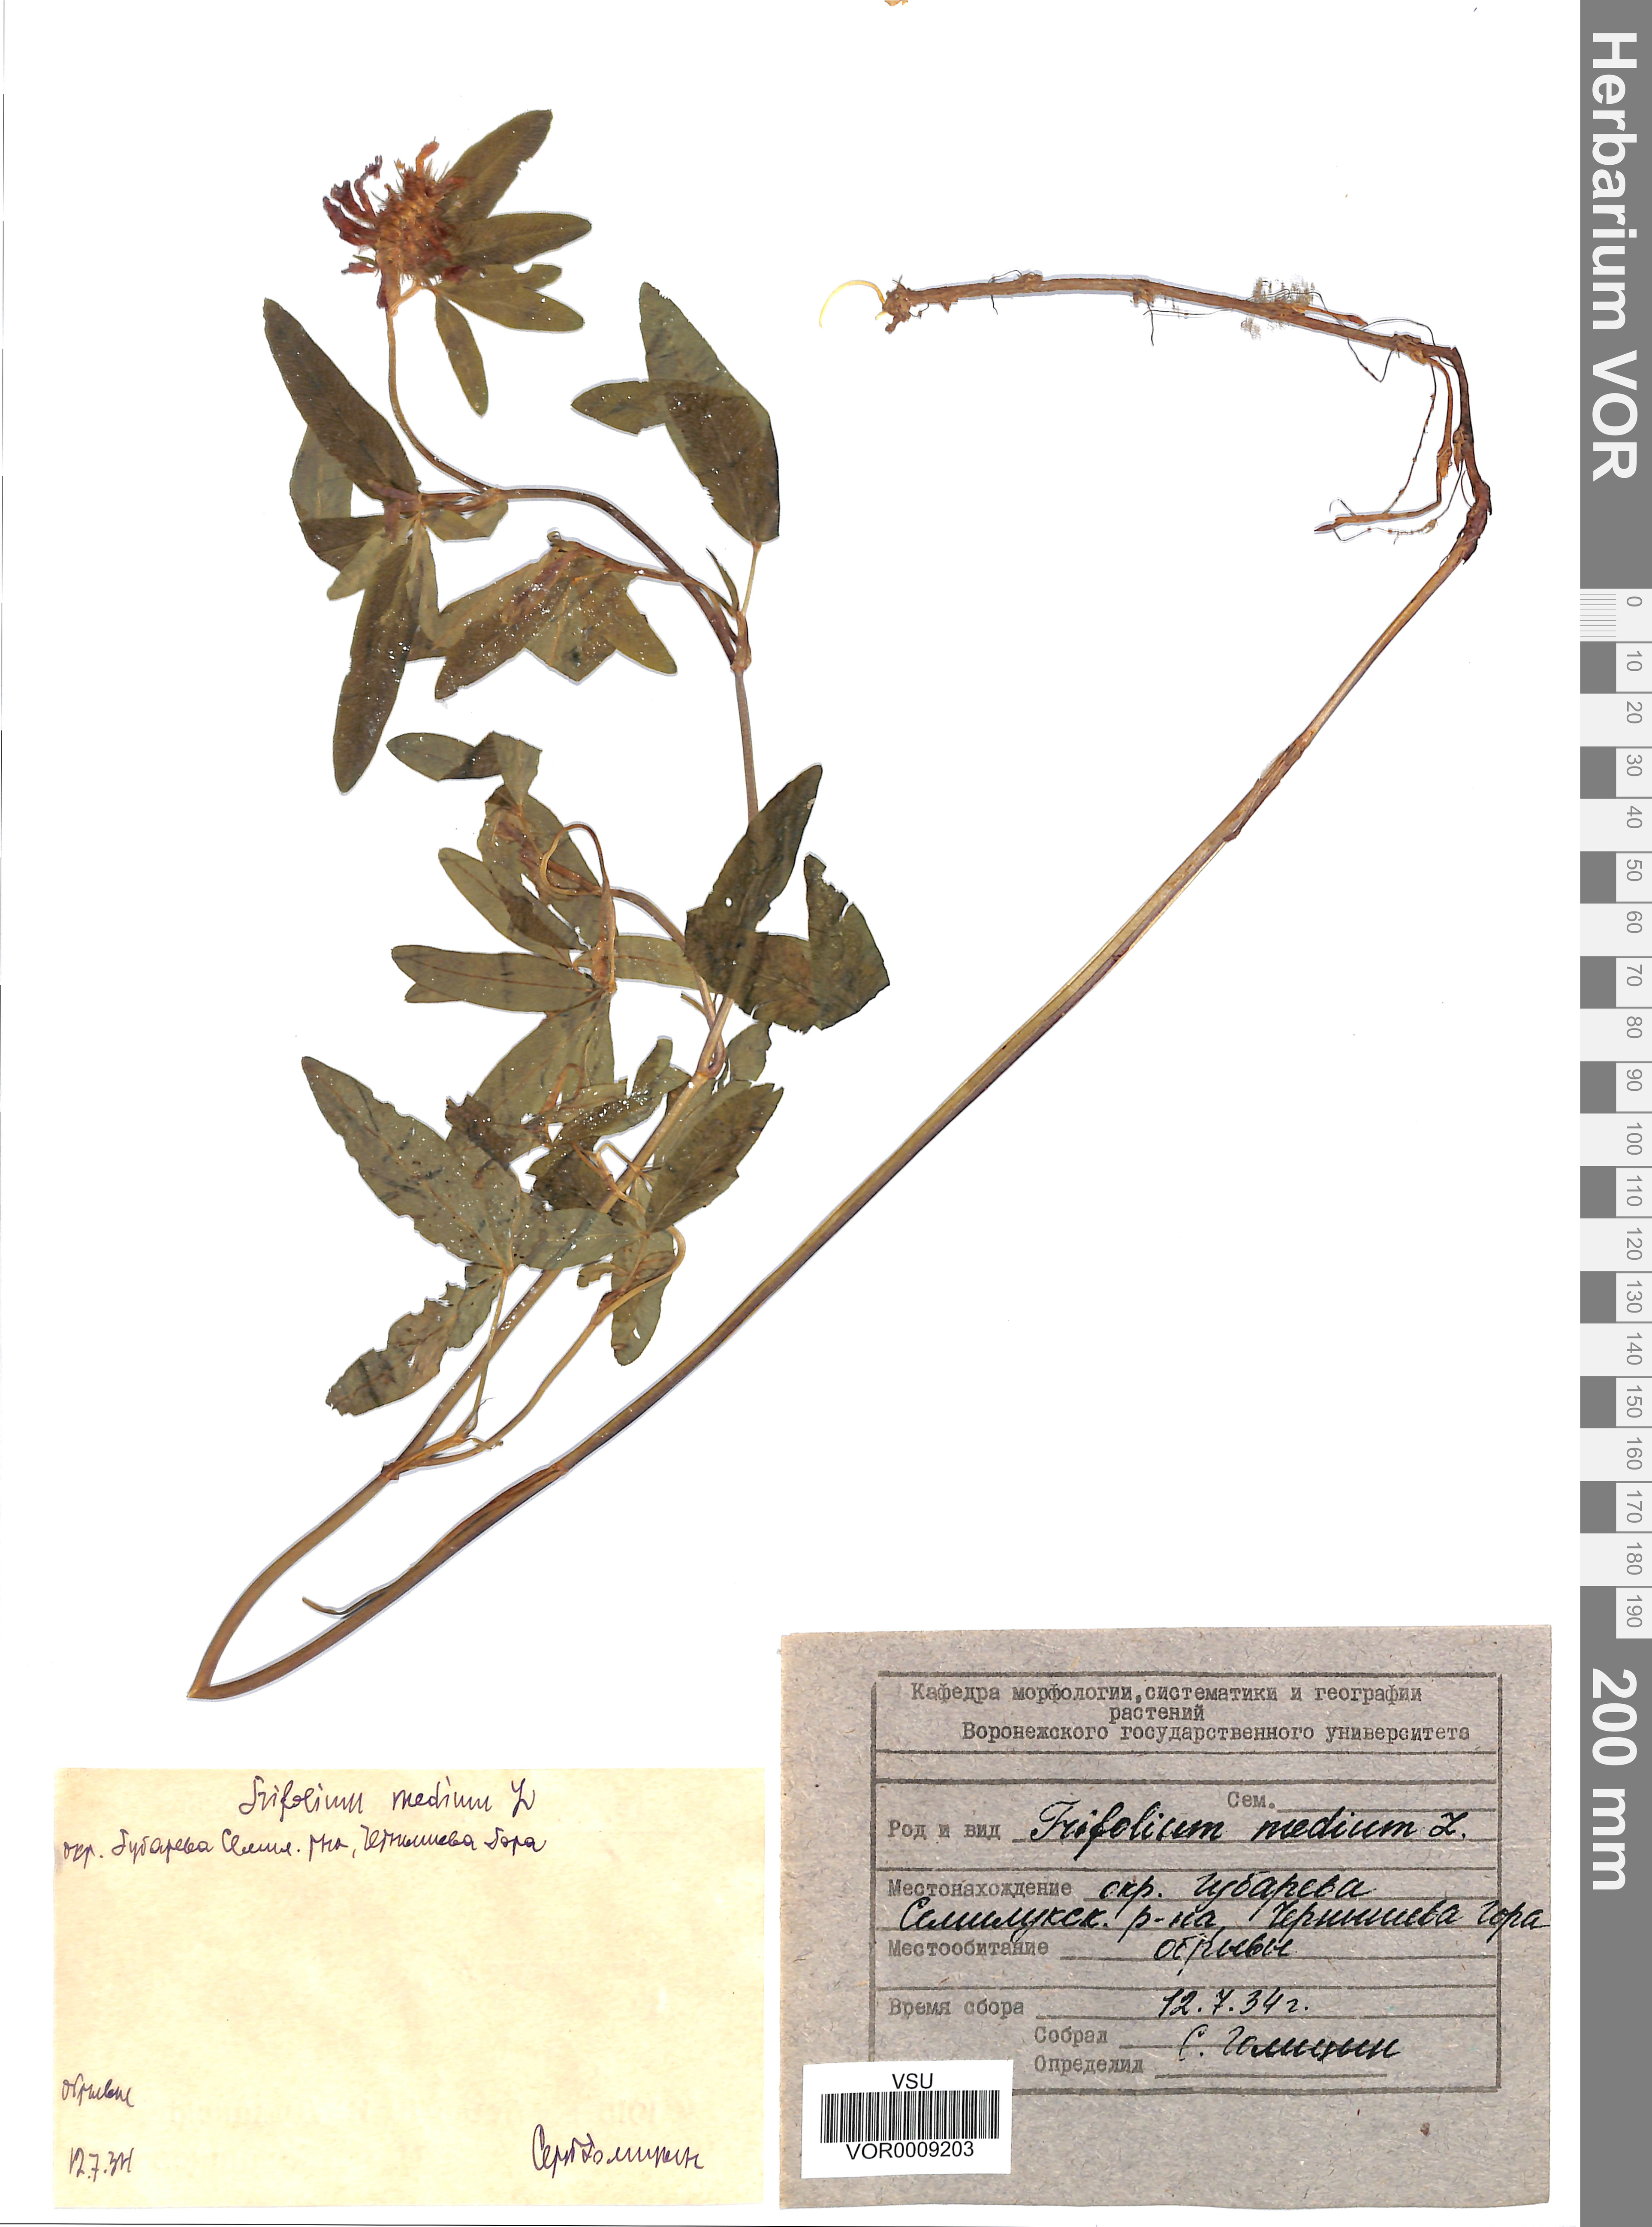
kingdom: Plantae
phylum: Tracheophyta
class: Magnoliopsida
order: Fabales
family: Fabaceae
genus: Trifolium
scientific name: Trifolium medium
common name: Zigzag clover
